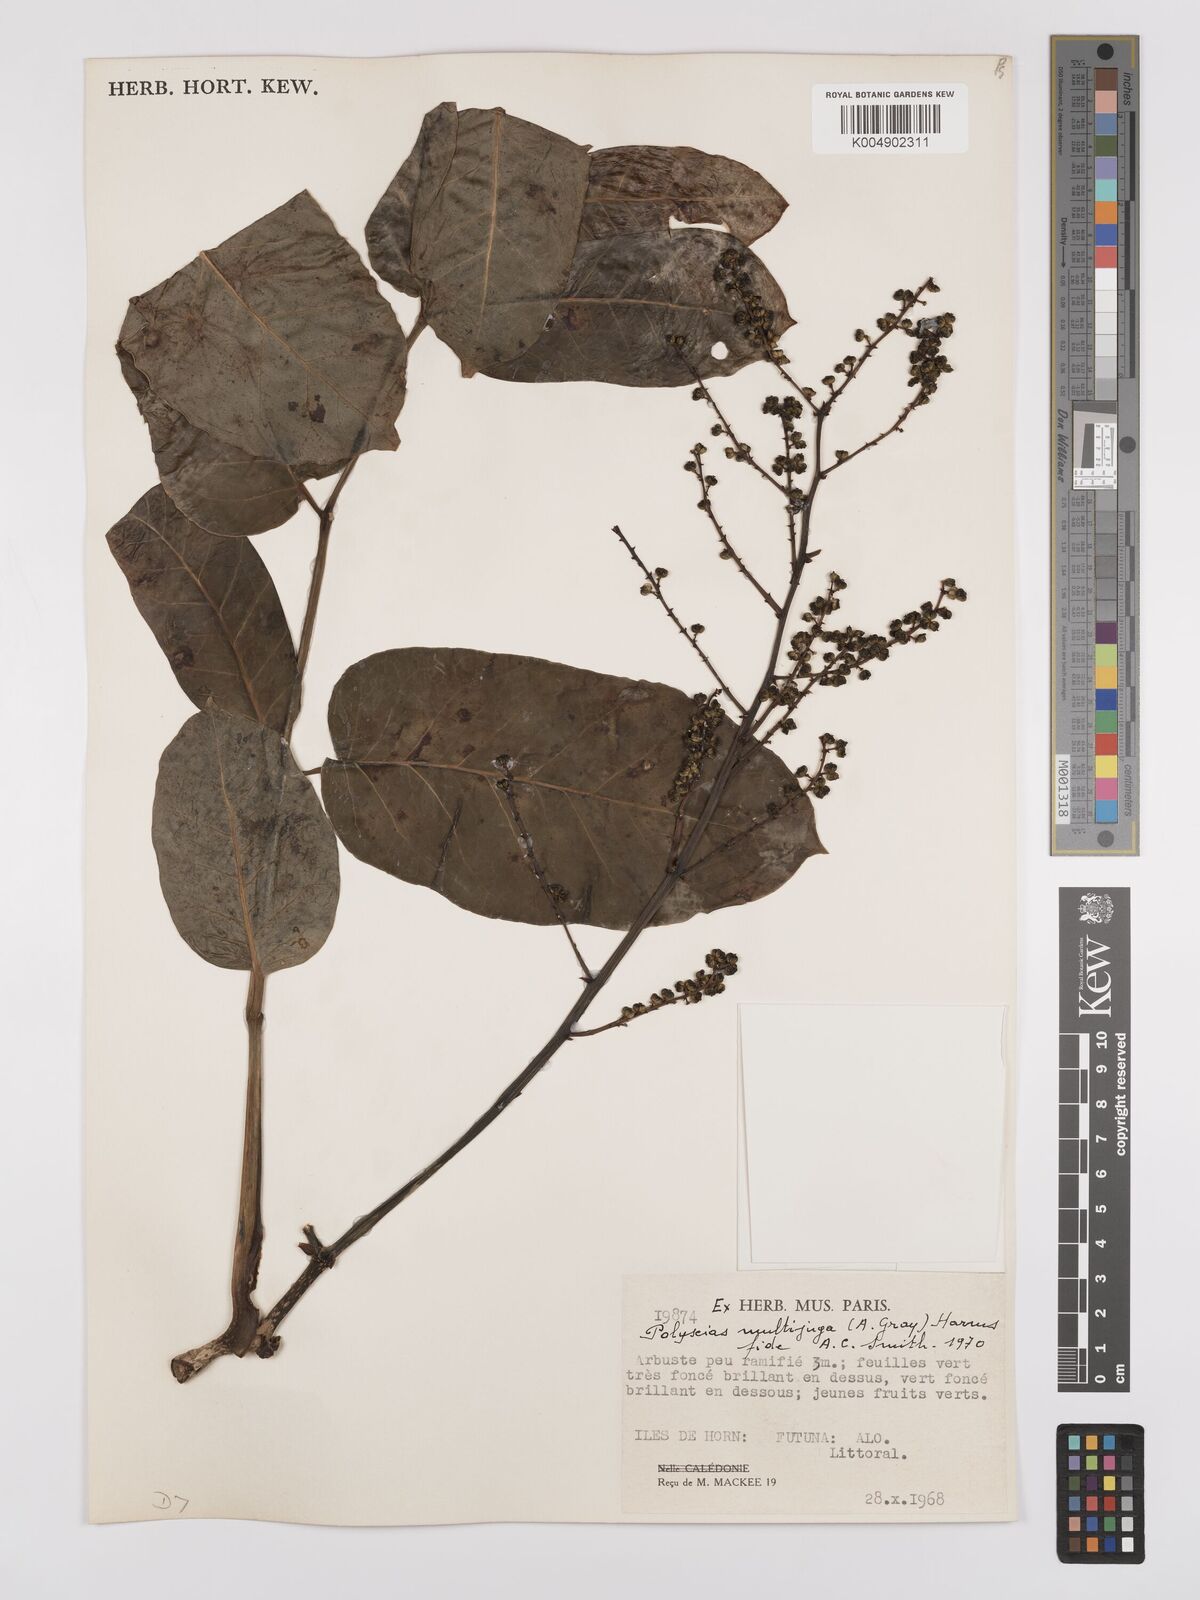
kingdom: Plantae
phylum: Tracheophyta
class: Magnoliopsida
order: Apiales
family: Araliaceae
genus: Polyscias
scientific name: Polyscias multijuga
